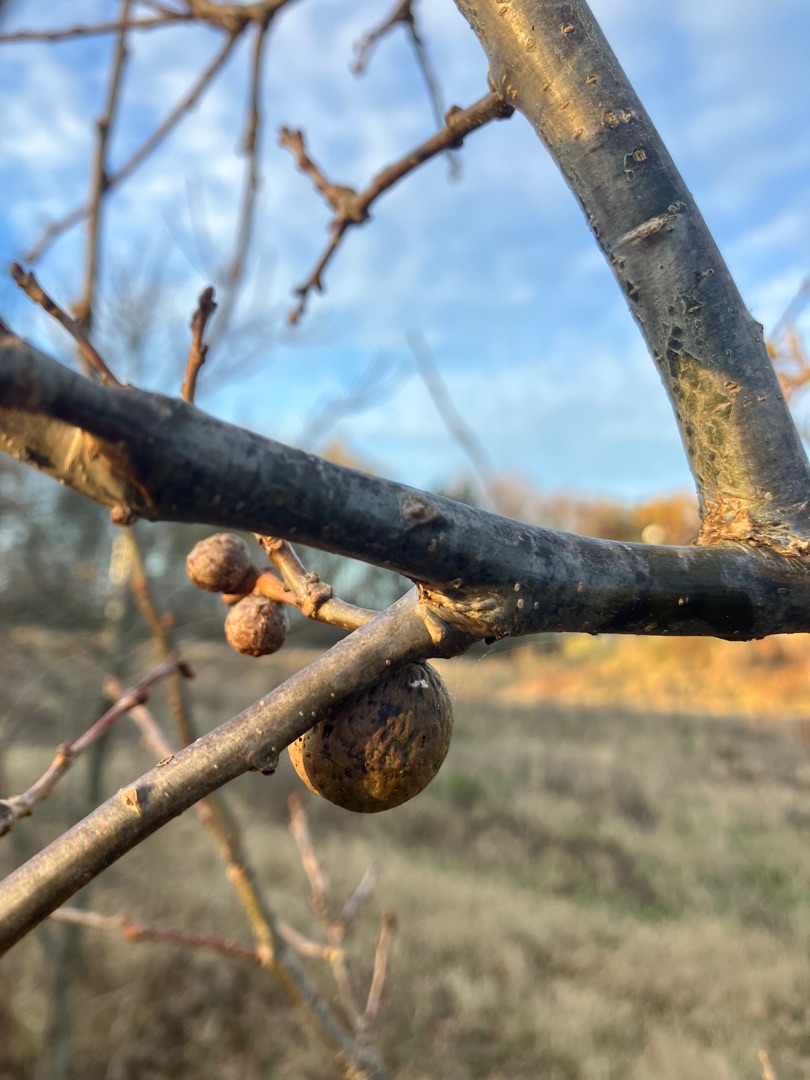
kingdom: Animalia
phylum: Arthropoda
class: Insecta
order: Hymenoptera
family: Cynipidae
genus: Andricus
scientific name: Andricus kollari
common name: Marmorkugle-galhveps
